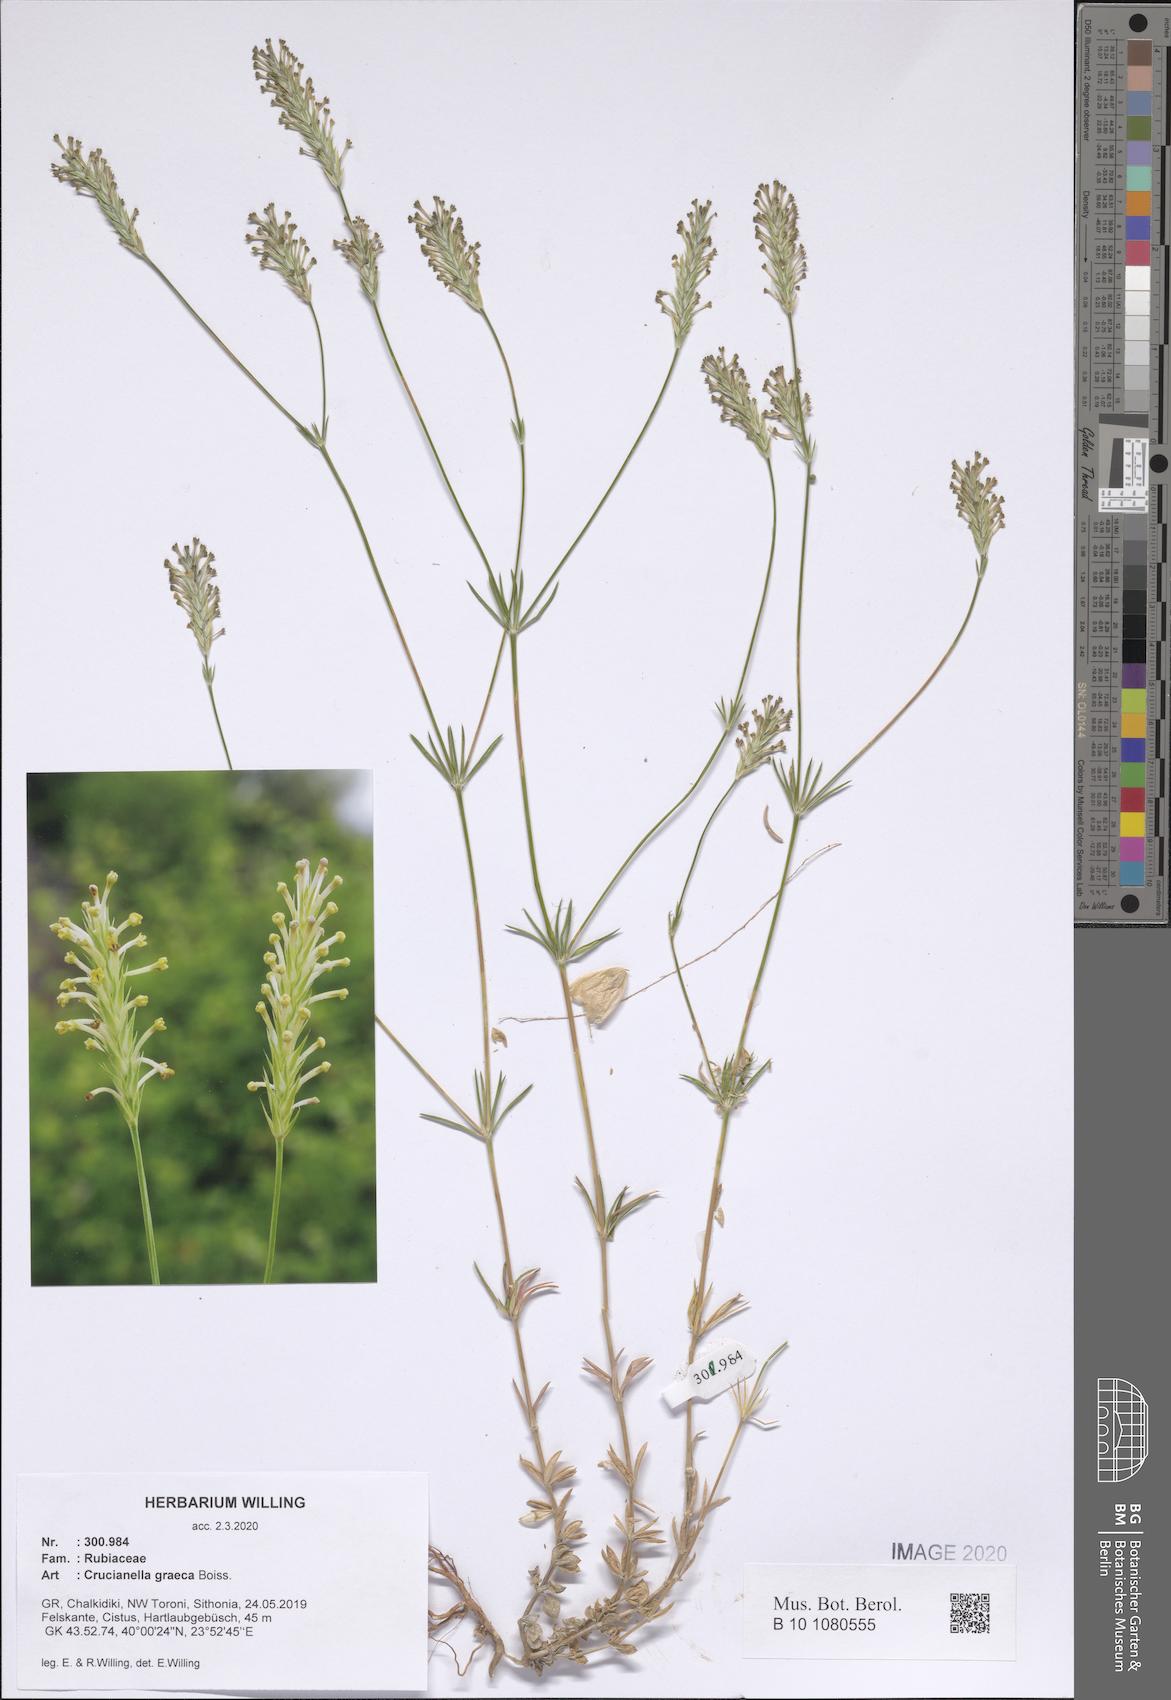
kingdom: Plantae
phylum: Tracheophyta
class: Magnoliopsida
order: Gentianales
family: Rubiaceae
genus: Crucianella
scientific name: Crucianella graeca
